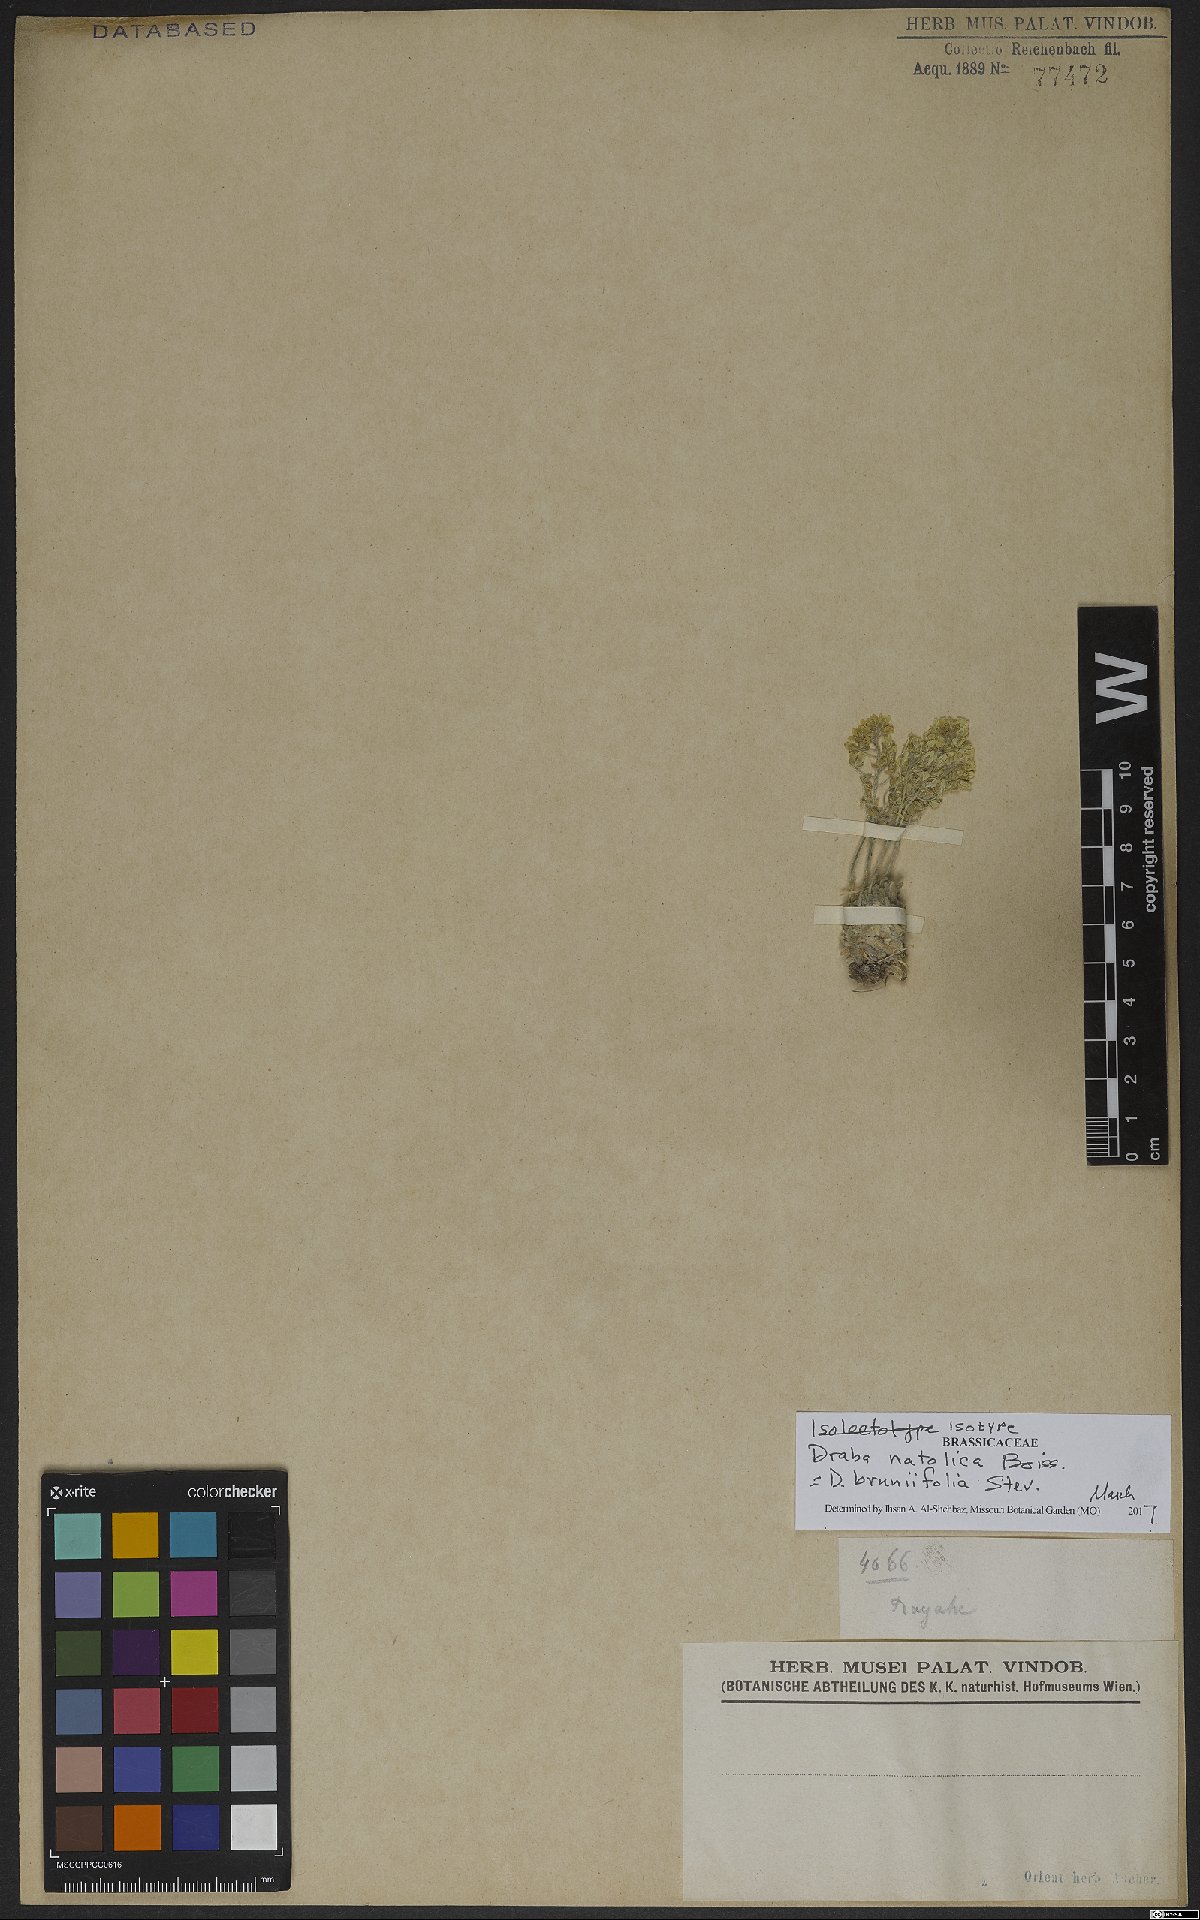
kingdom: Plantae
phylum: Tracheophyta
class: Magnoliopsida
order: Brassicales
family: Brassicaceae
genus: Draba
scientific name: Draba bruniifolia
